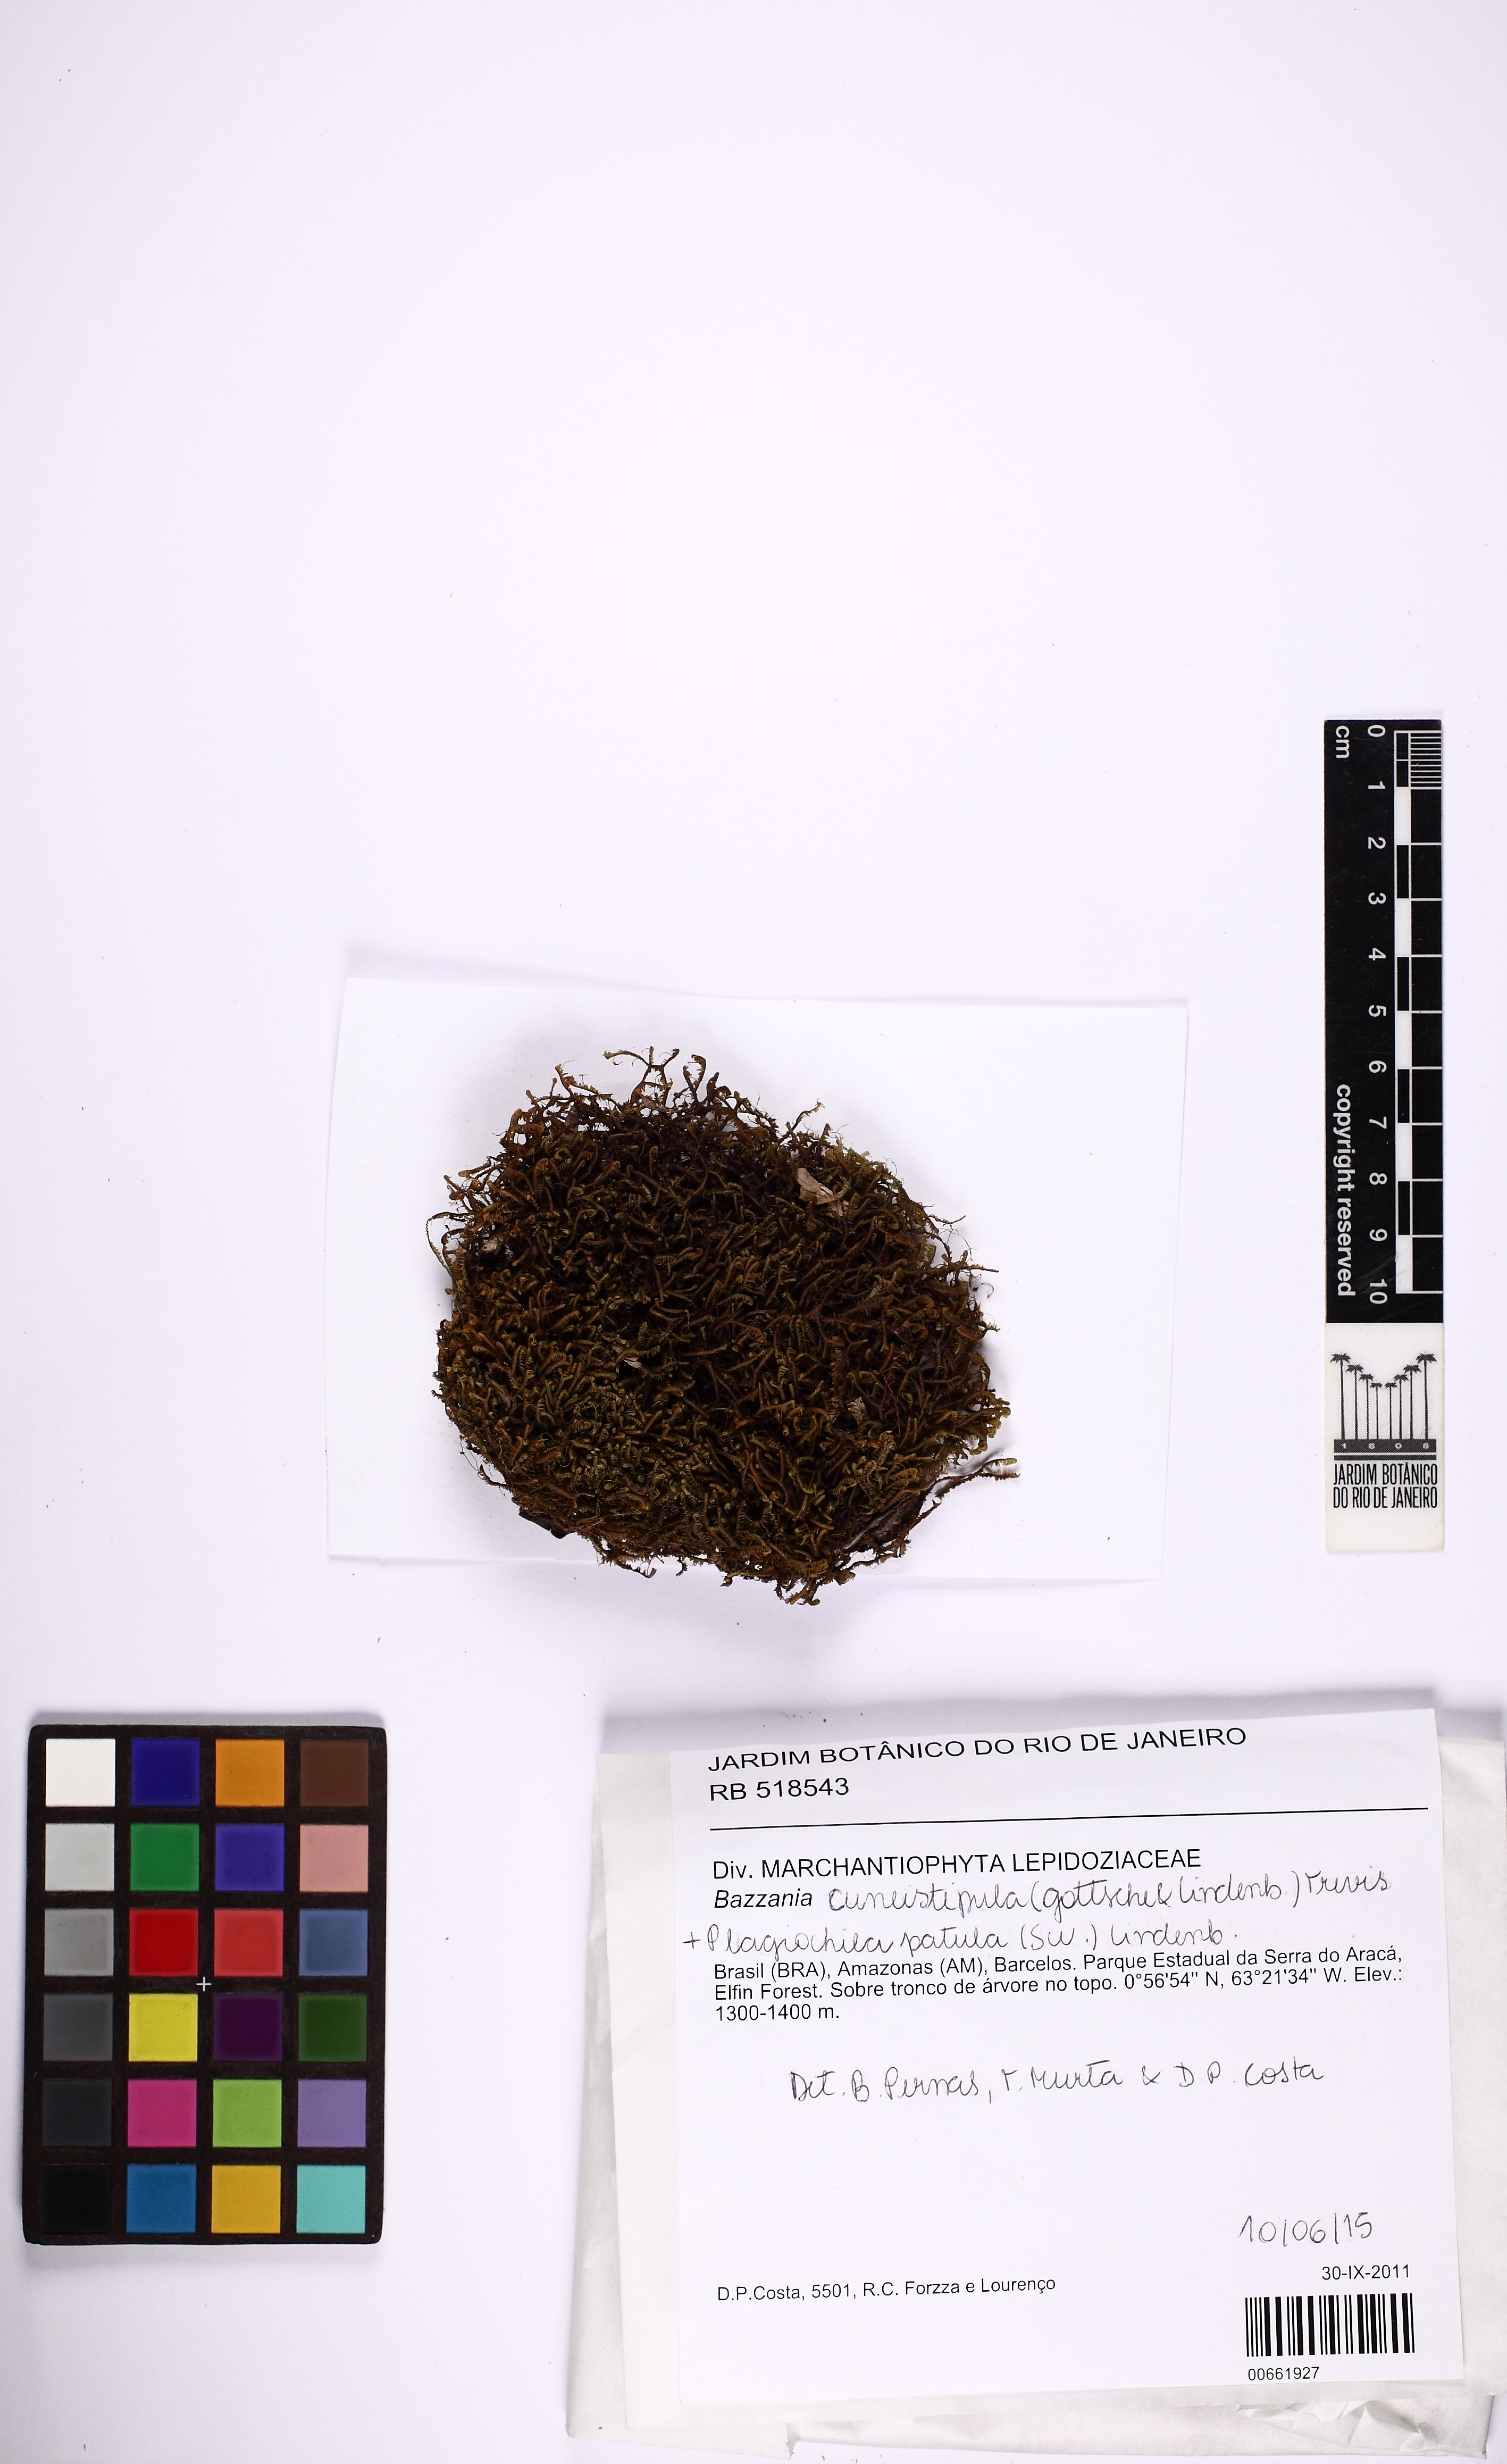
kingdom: Plantae
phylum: Marchantiophyta
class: Jungermanniopsida
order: Jungermanniales
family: Lepidoziaceae
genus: Bazzania
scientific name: Bazzania cuneistipula
